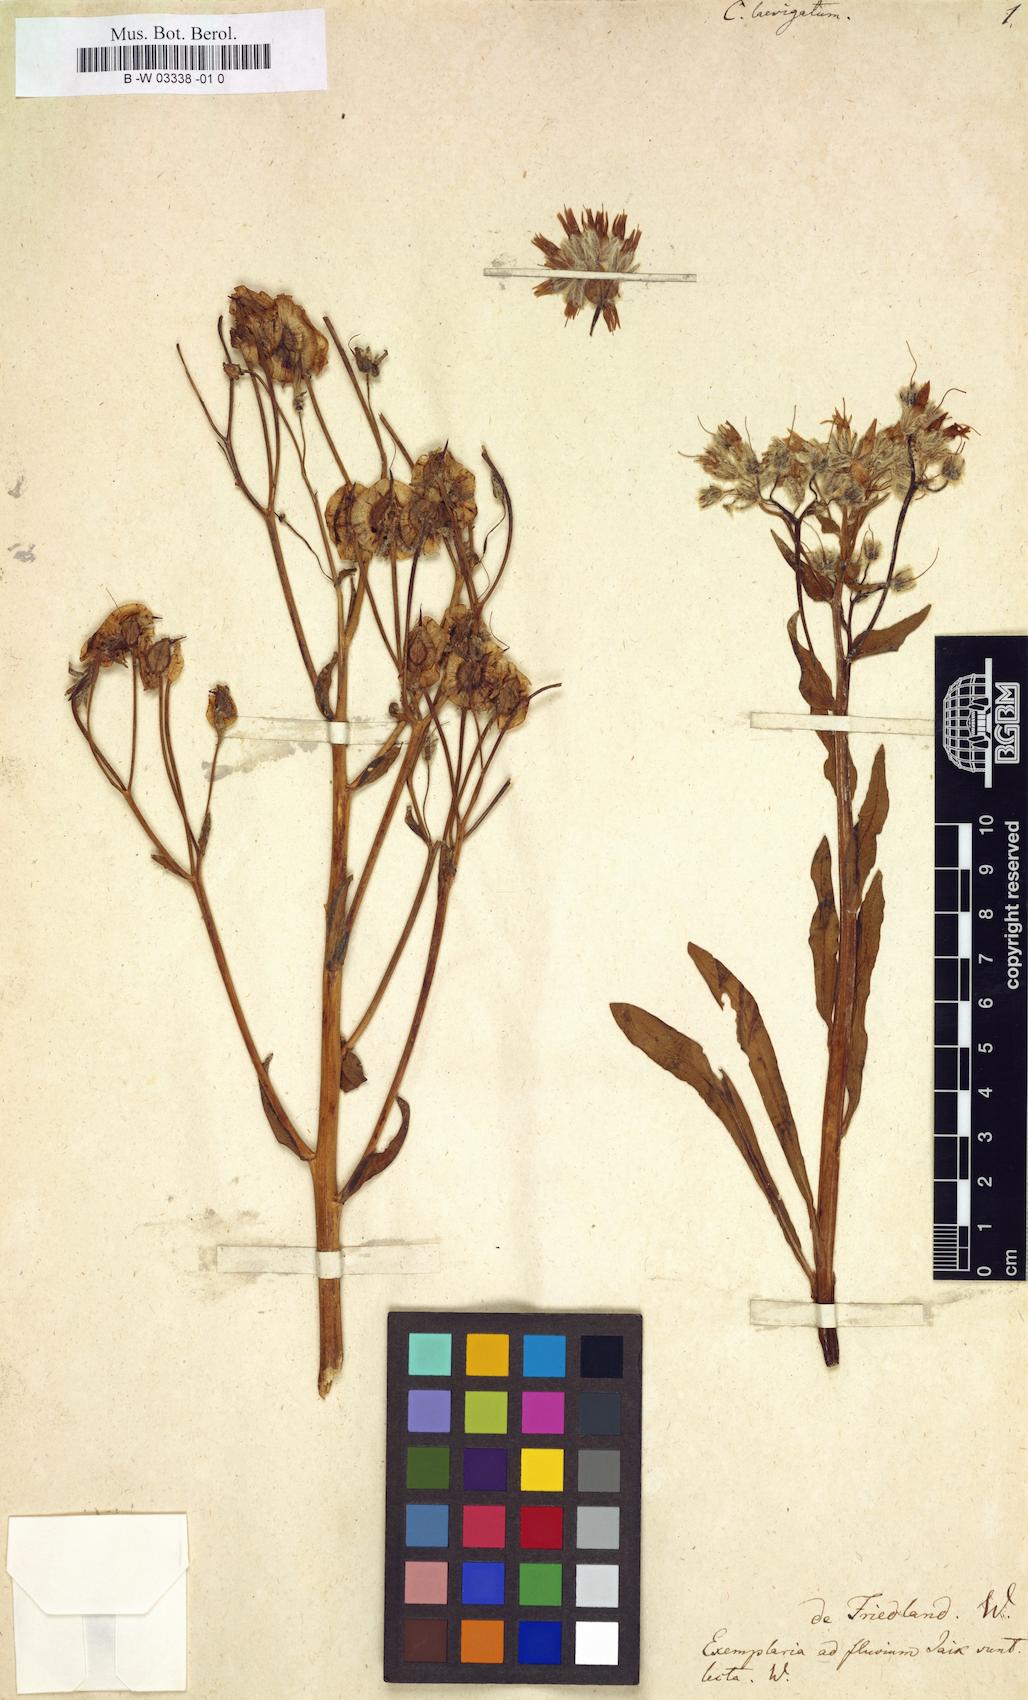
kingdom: Plantae
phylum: Tracheophyta
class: Magnoliopsida
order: Boraginales
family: Boraginaceae
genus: Rindera
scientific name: Rindera tetraspis
